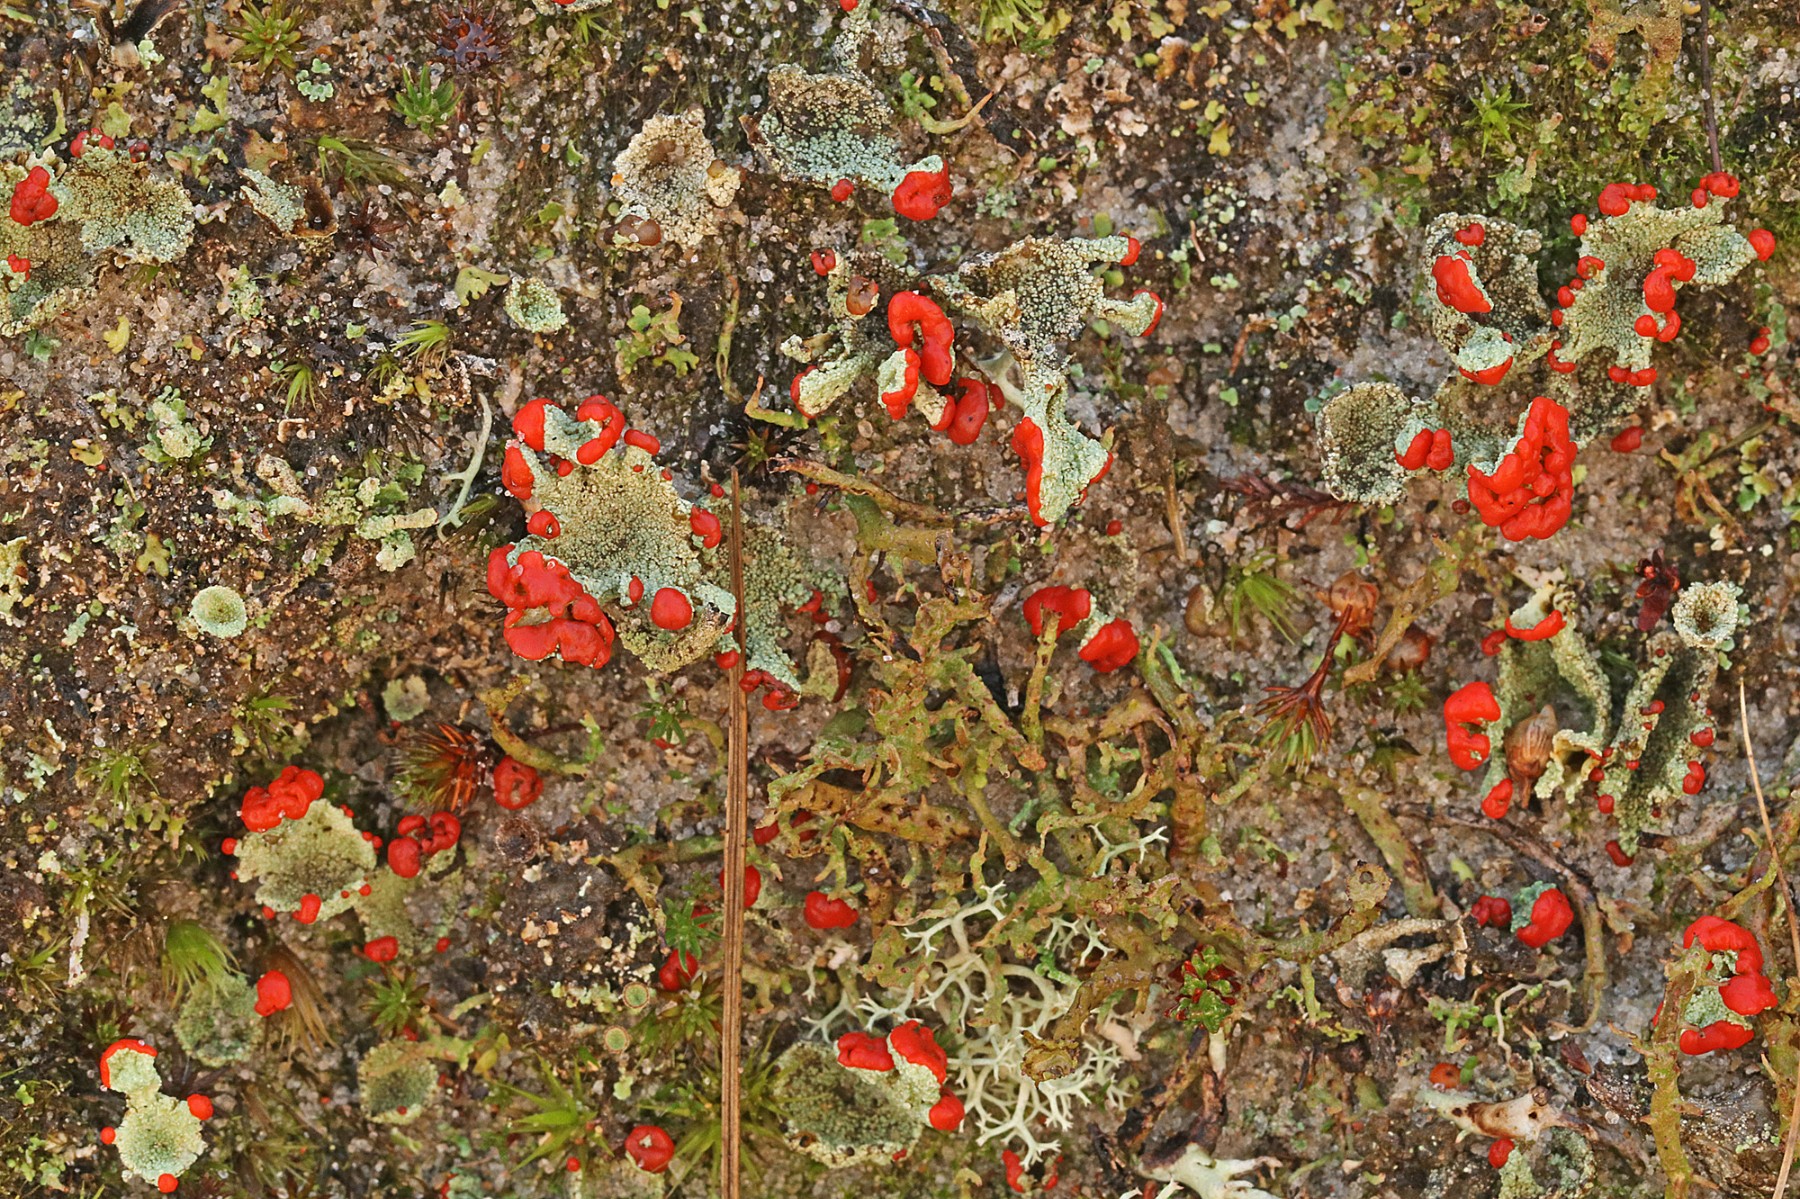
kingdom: Fungi
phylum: Ascomycota
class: Lecanoromycetes
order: Lecanorales
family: Cladoniaceae
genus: Cladonia
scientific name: Cladonia diversa
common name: rød bægerlav
